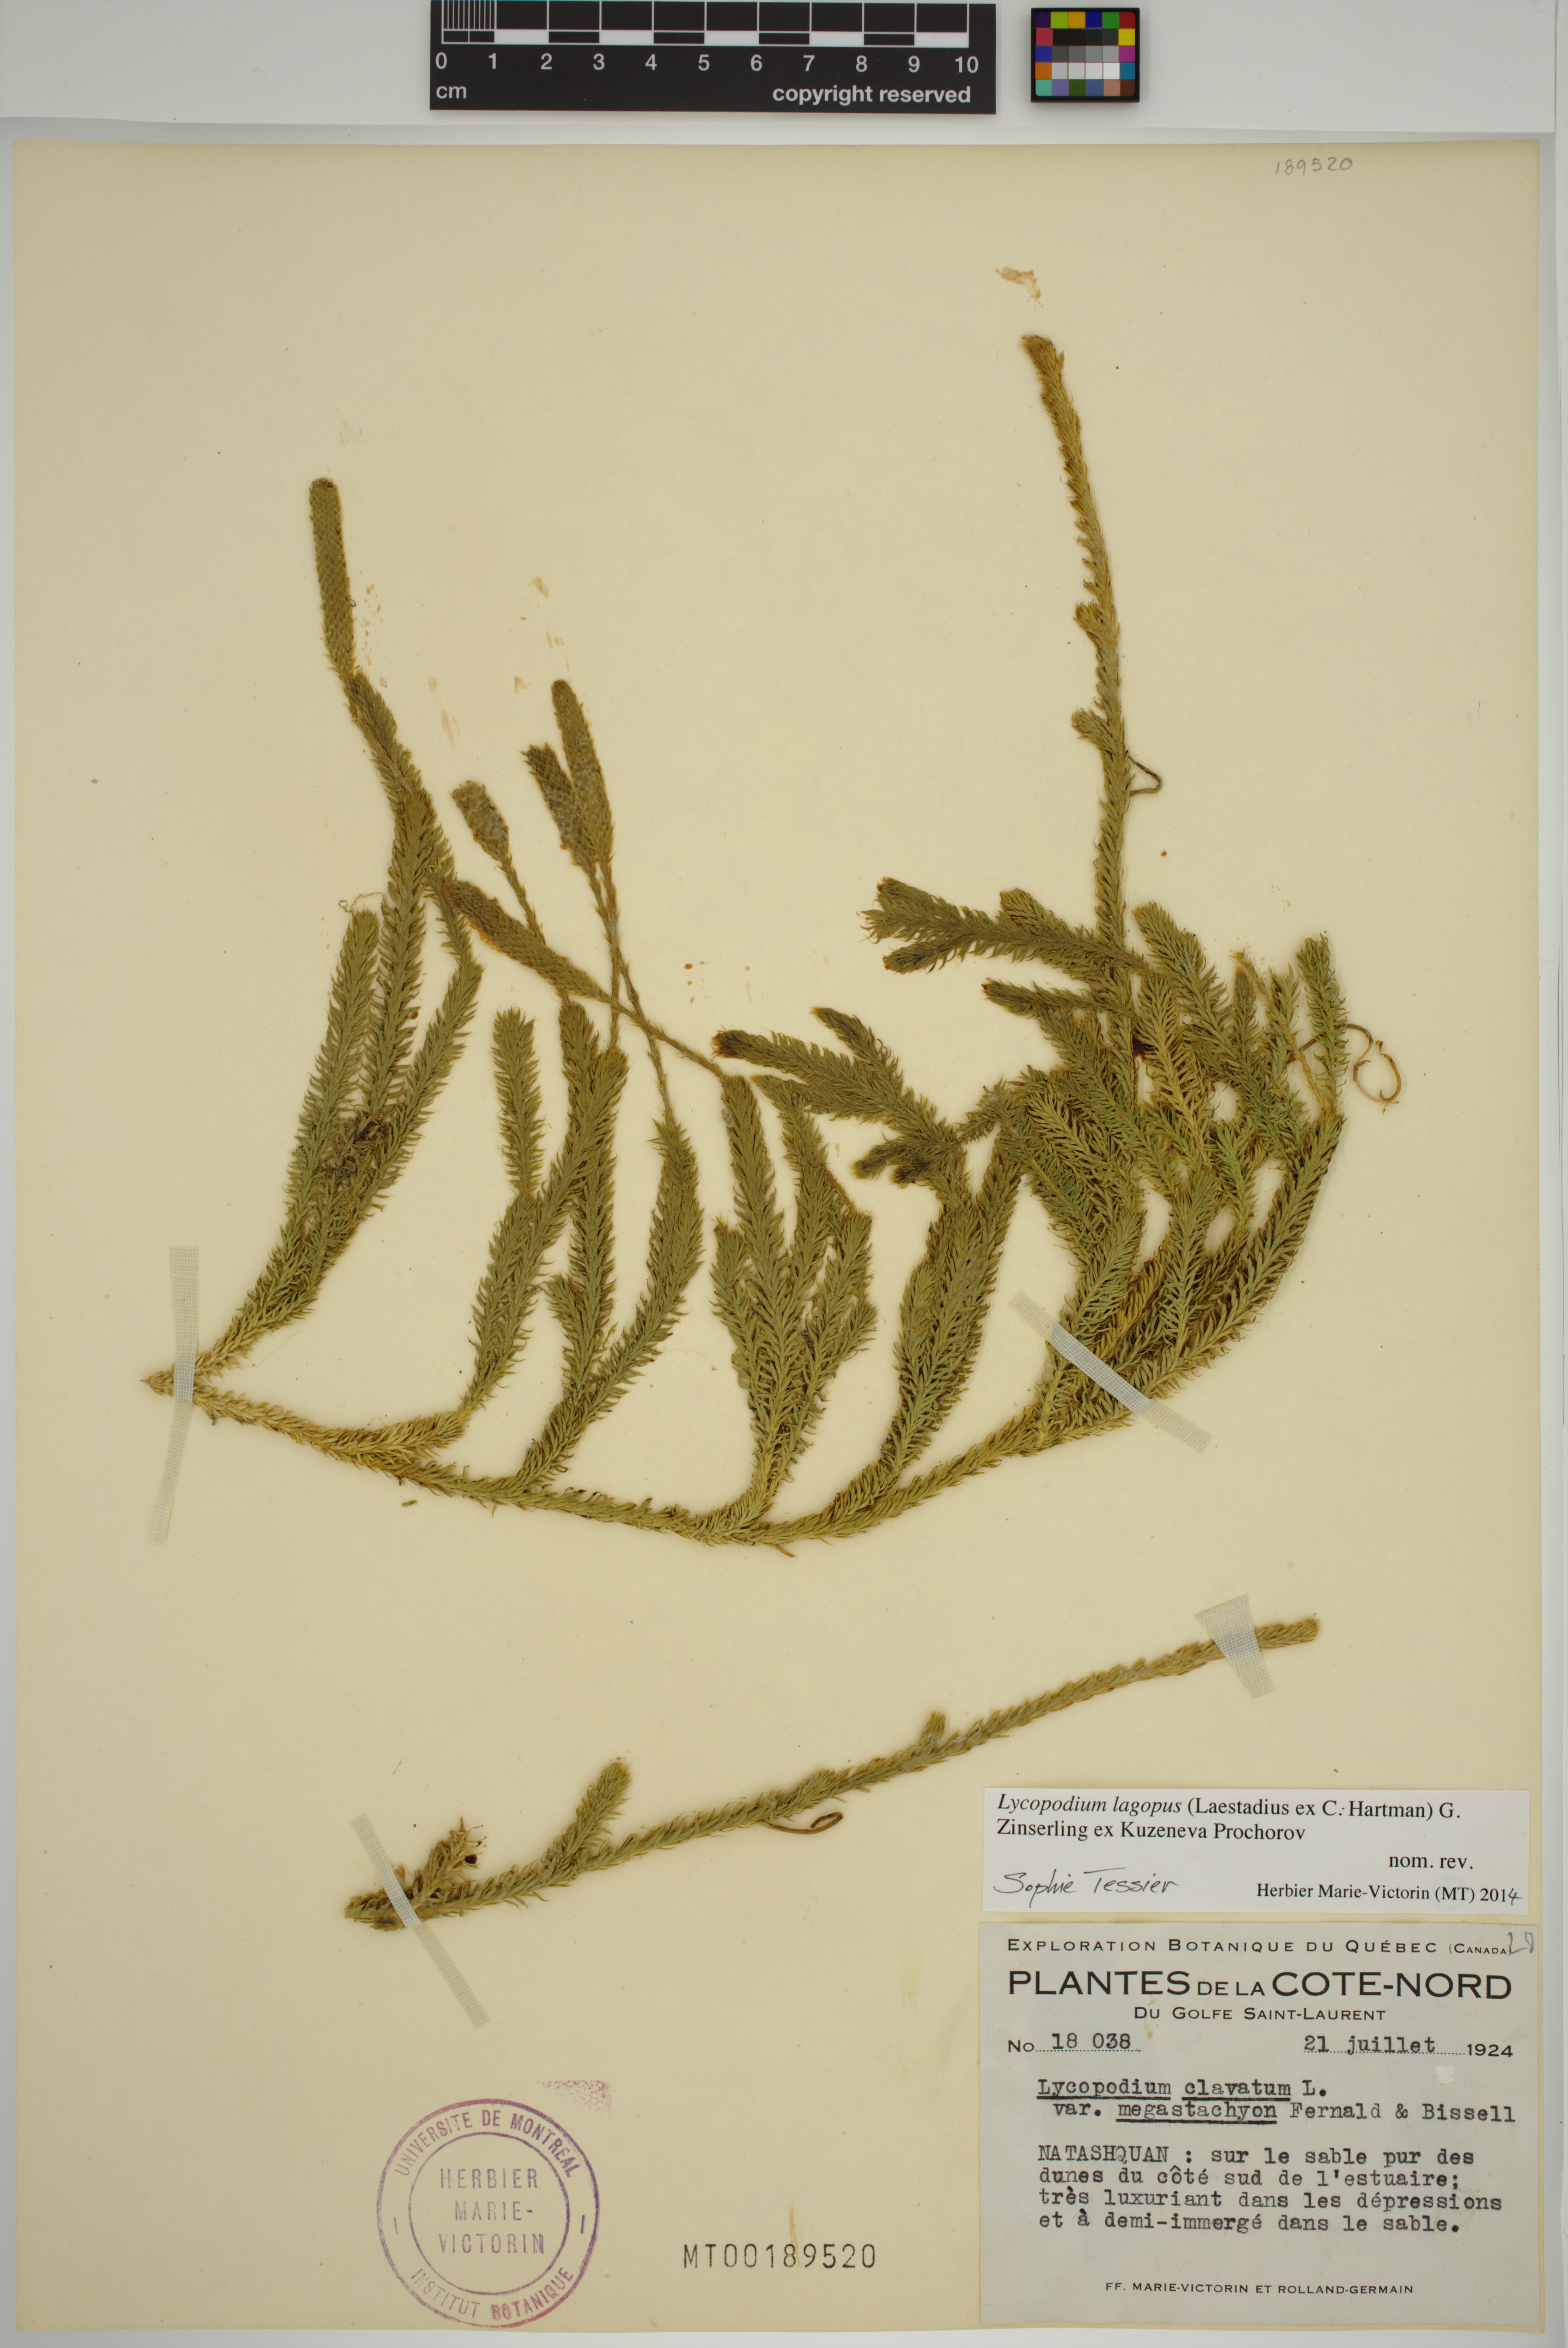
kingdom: Plantae
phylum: Tracheophyta
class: Lycopodiopsida
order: Lycopodiales
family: Lycopodiaceae
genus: Lycopodium
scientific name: Lycopodium lagopus
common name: One-cone clubmoss
